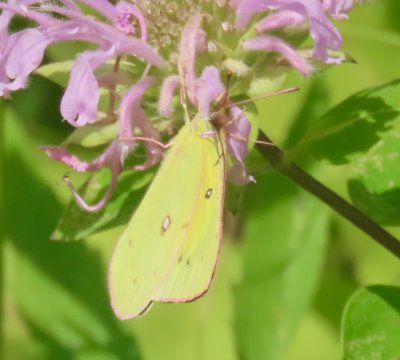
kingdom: Animalia
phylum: Arthropoda
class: Insecta
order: Lepidoptera
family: Pieridae
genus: Colias
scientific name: Colias eurytheme
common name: Orange Sulphur
